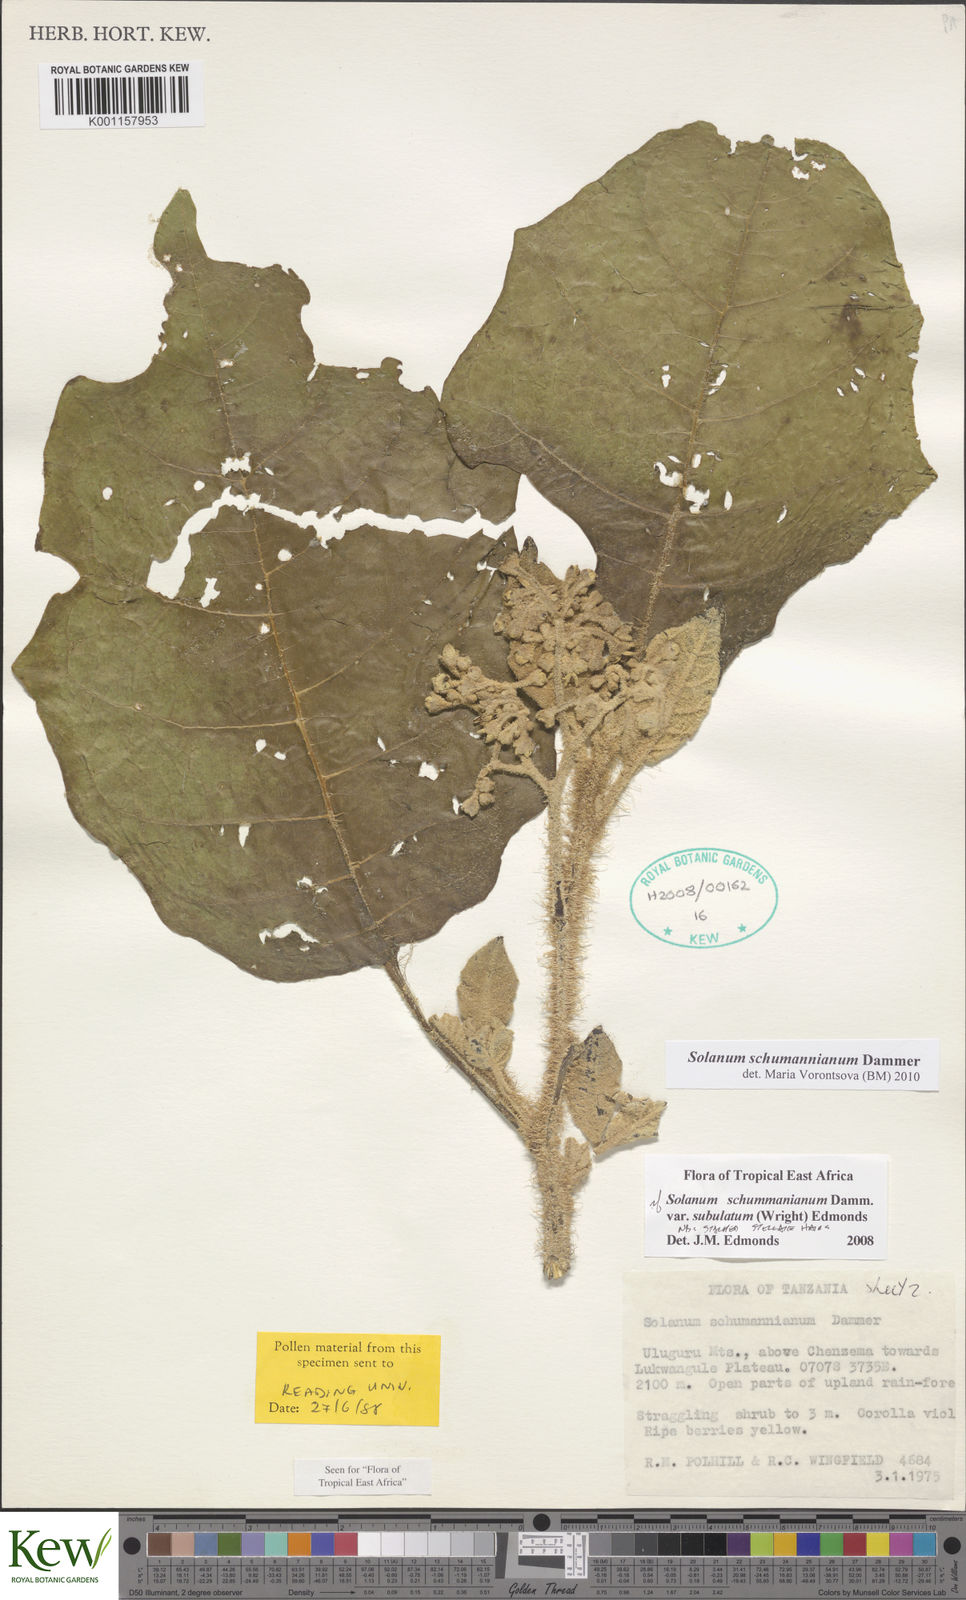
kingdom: Plantae
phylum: Tracheophyta
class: Magnoliopsida
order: Solanales
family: Solanaceae
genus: Solanum
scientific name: Solanum schumannianum
